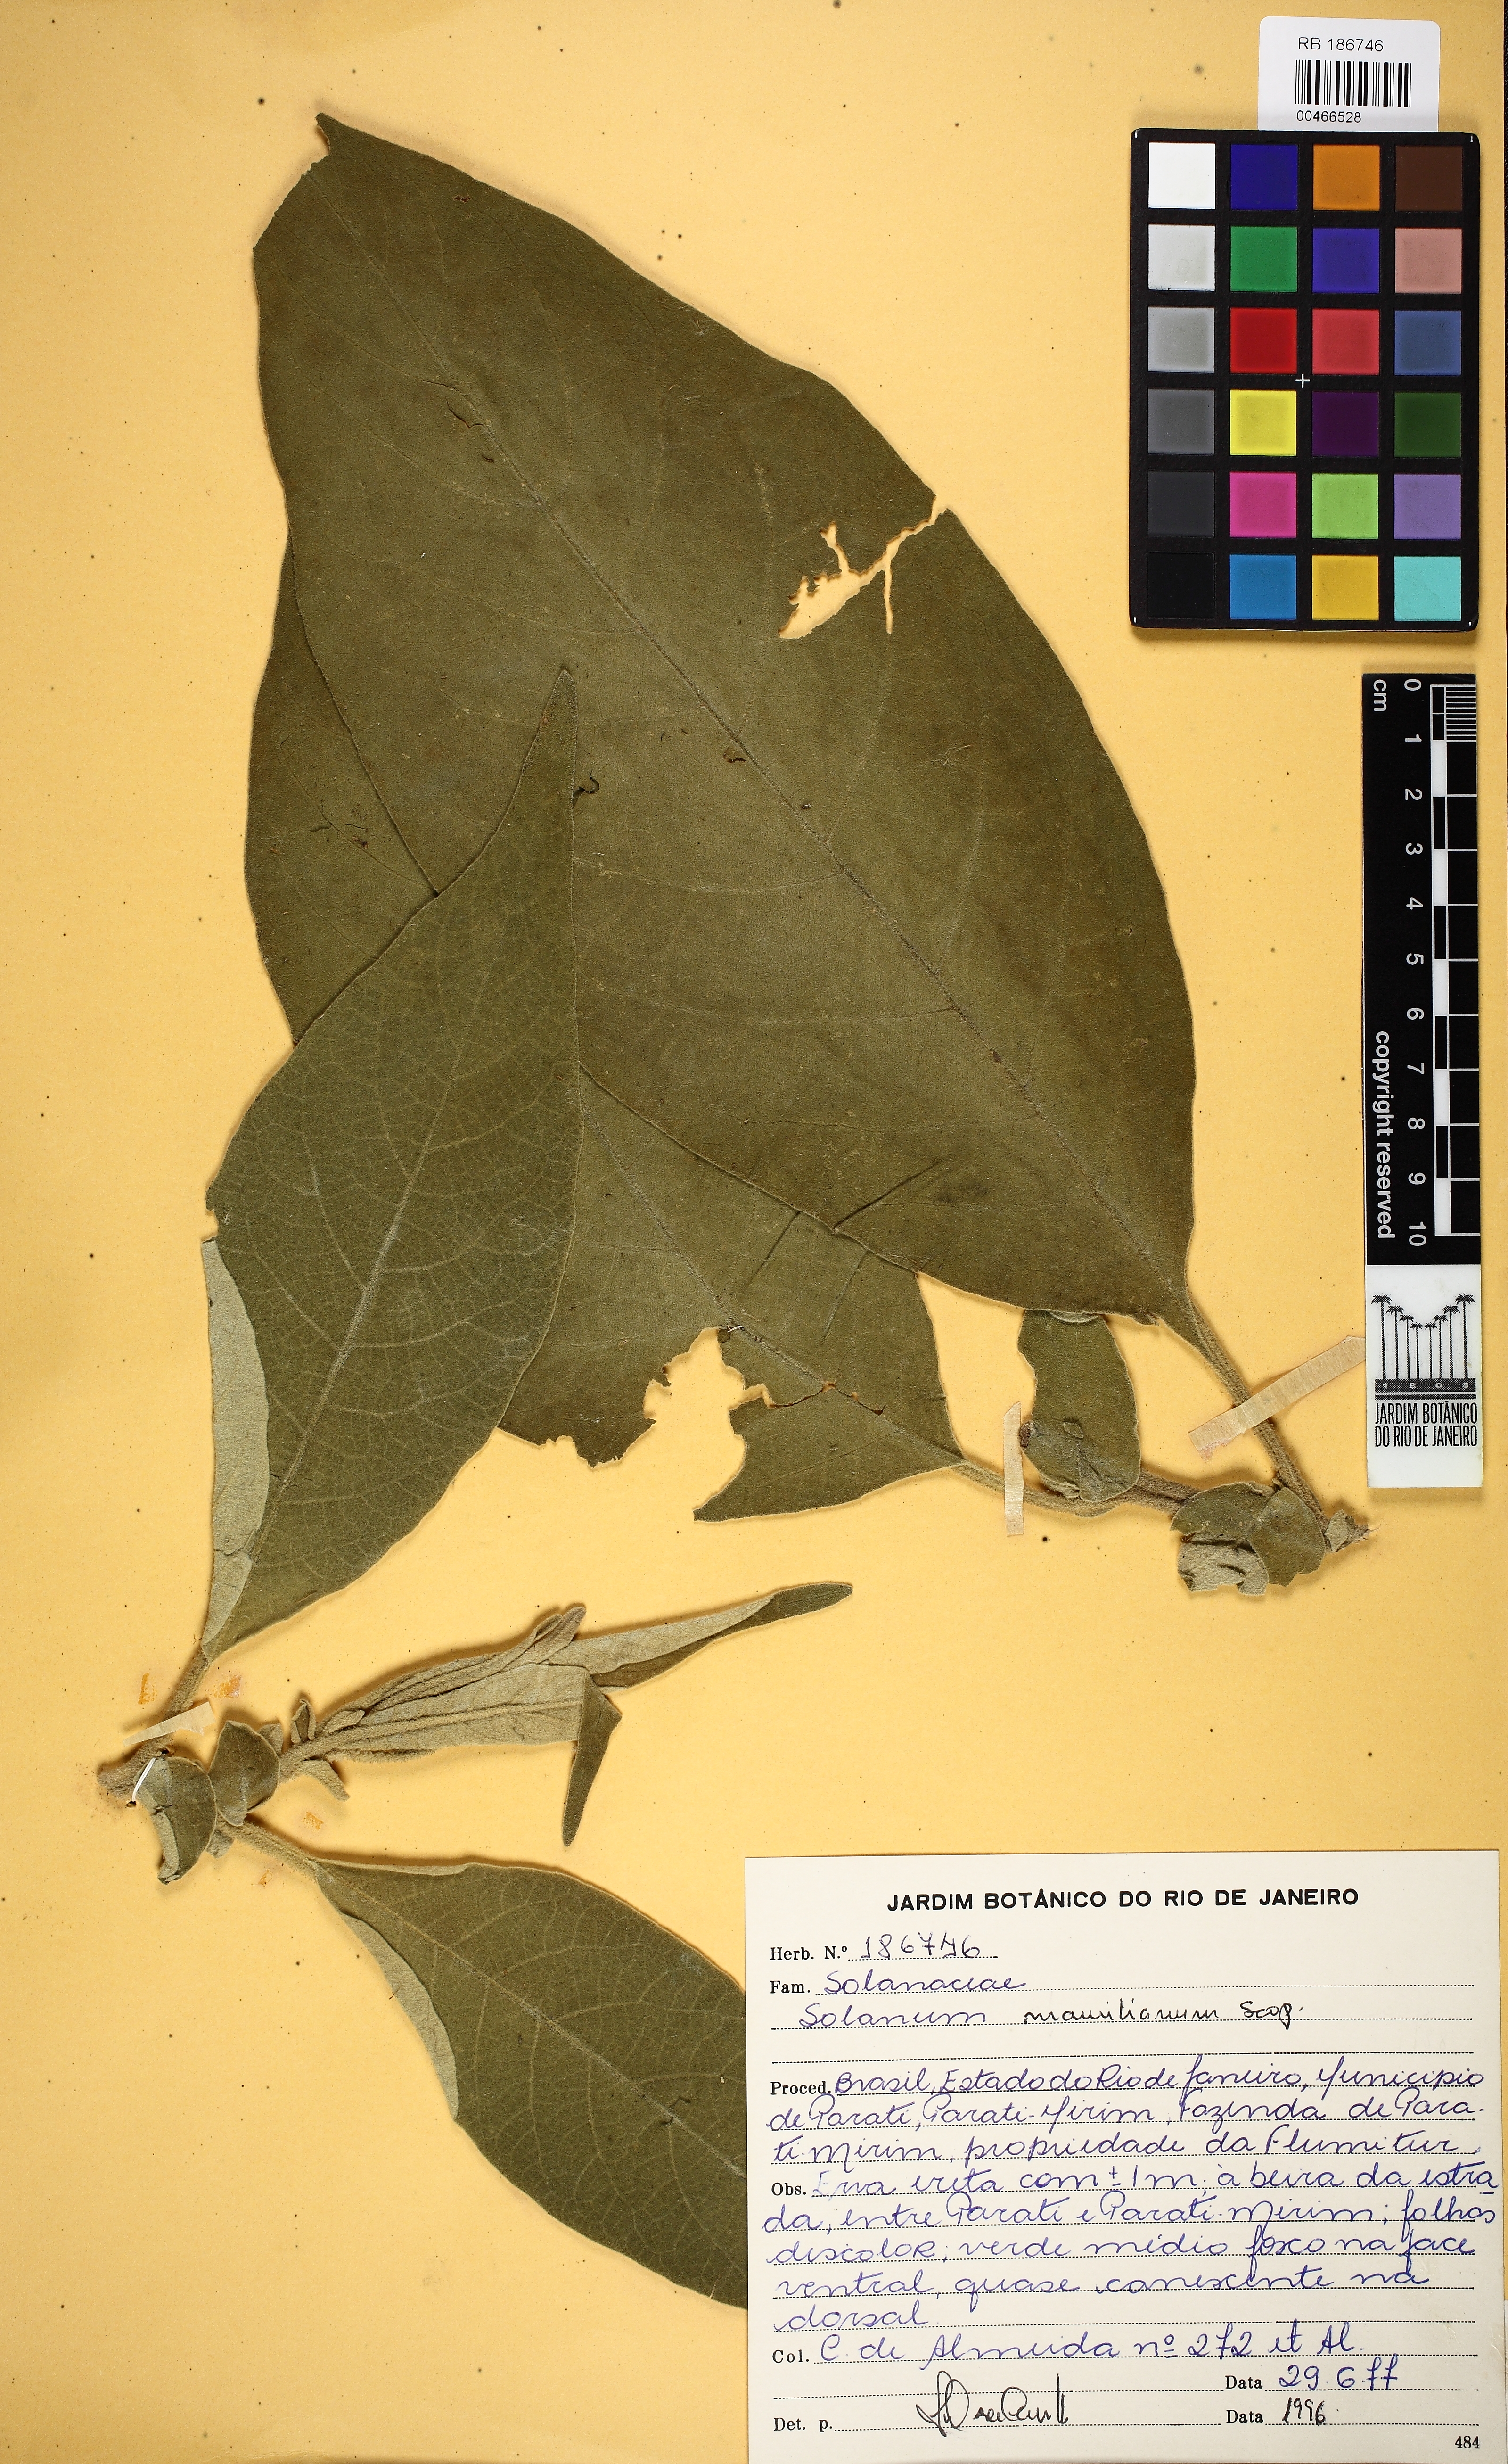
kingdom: Plantae
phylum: Tracheophyta
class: Magnoliopsida
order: Solanales
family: Solanaceae
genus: Solanum
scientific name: Solanum mauritianum
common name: Earleaf nightshade
